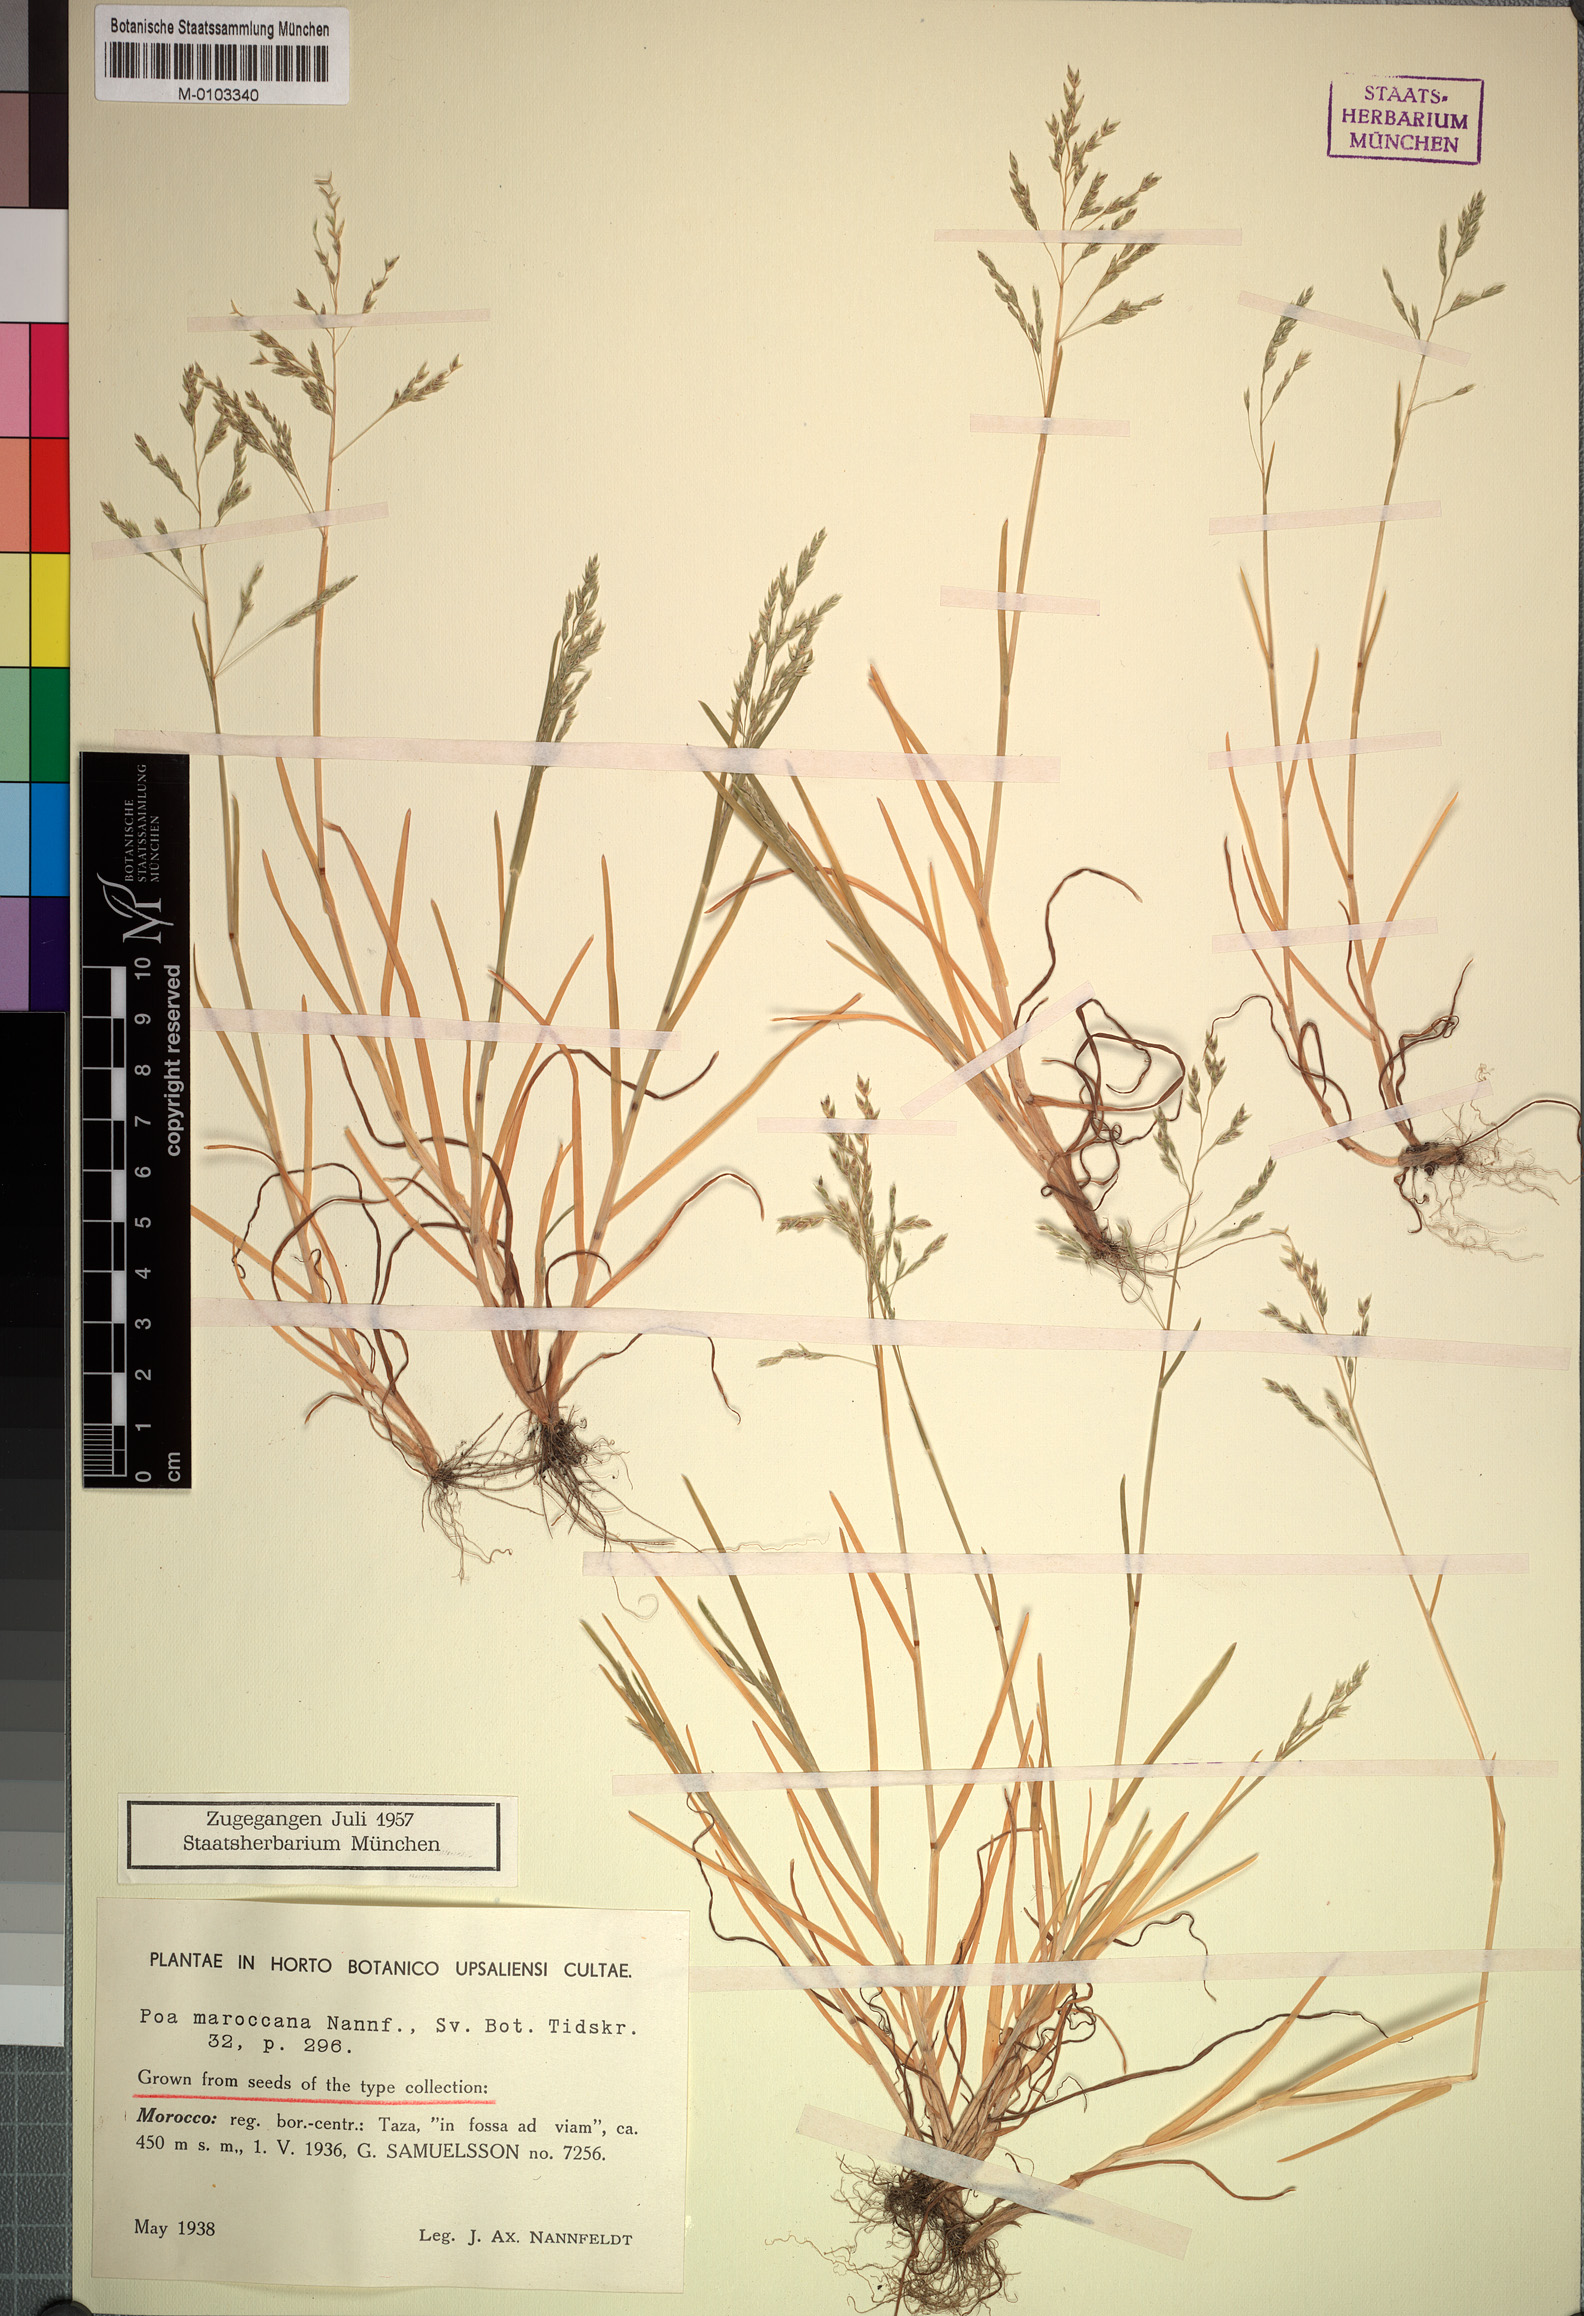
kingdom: Plantae
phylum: Tracheophyta
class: Liliopsida
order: Poales
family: Poaceae
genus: Poa
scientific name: Poa maroccana
